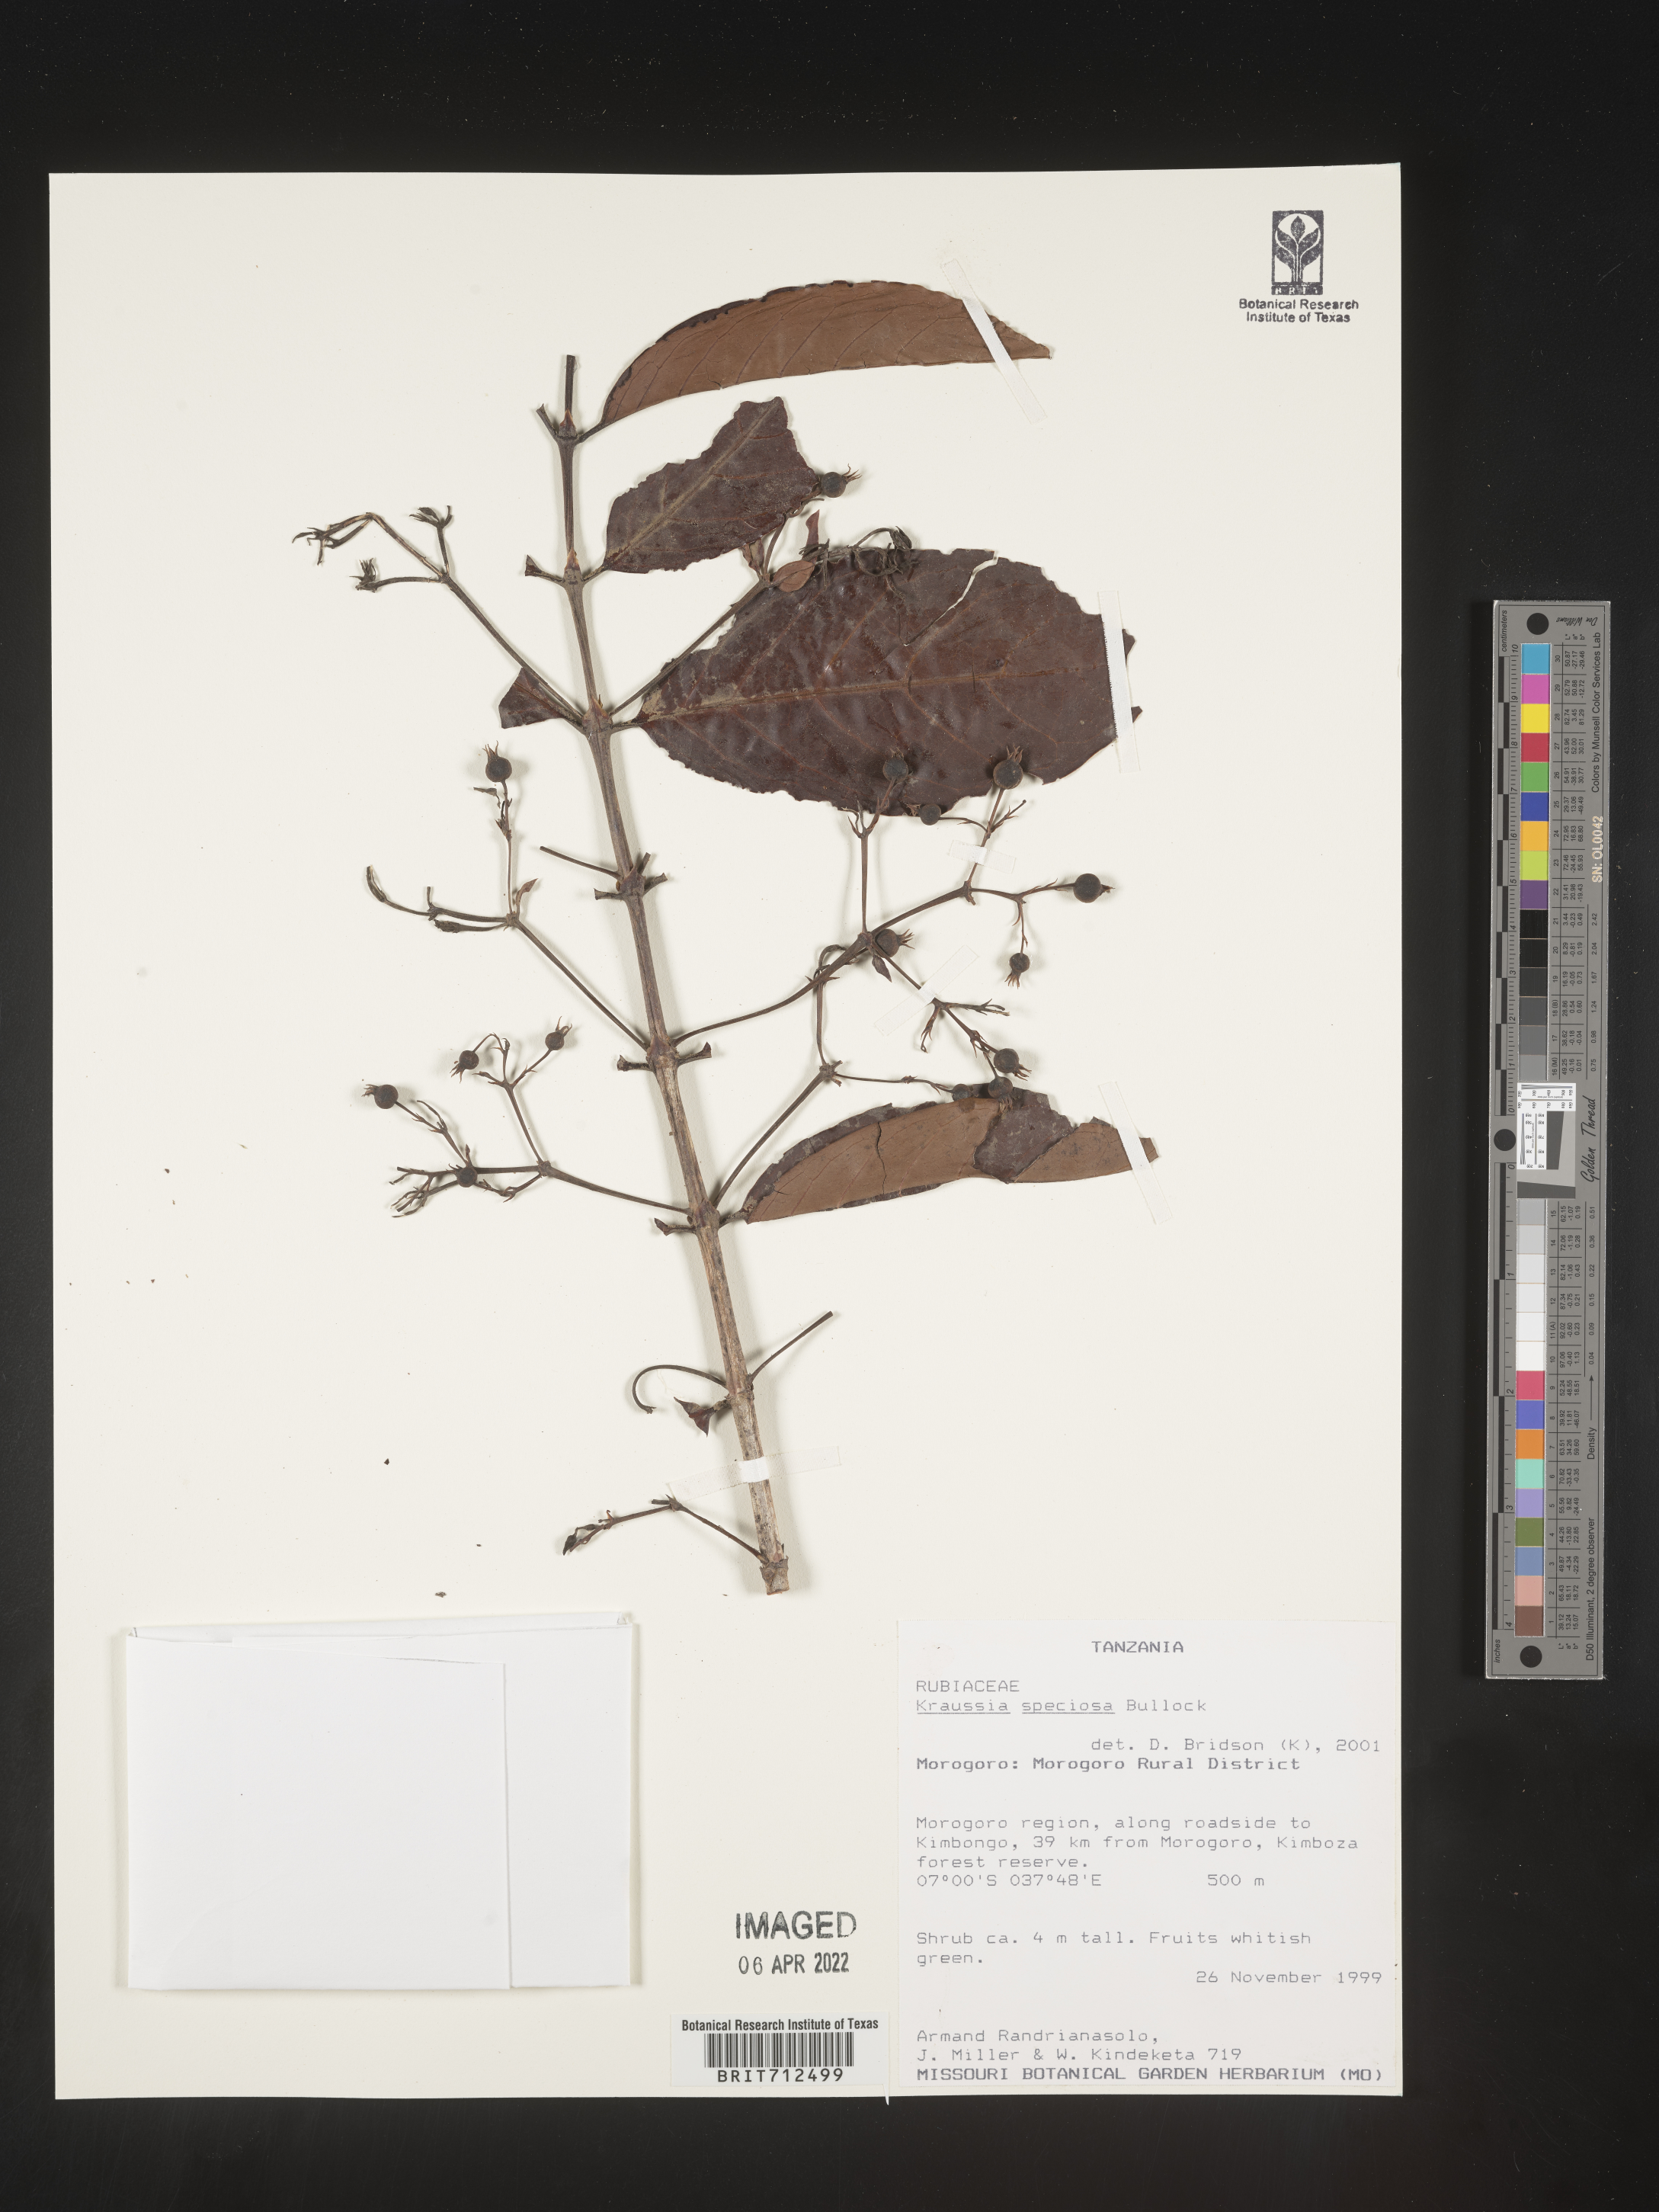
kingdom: Plantae
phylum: Tracheophyta
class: Magnoliopsida
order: Gentianales
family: Rubiaceae
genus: Kraussia
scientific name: Kraussia
